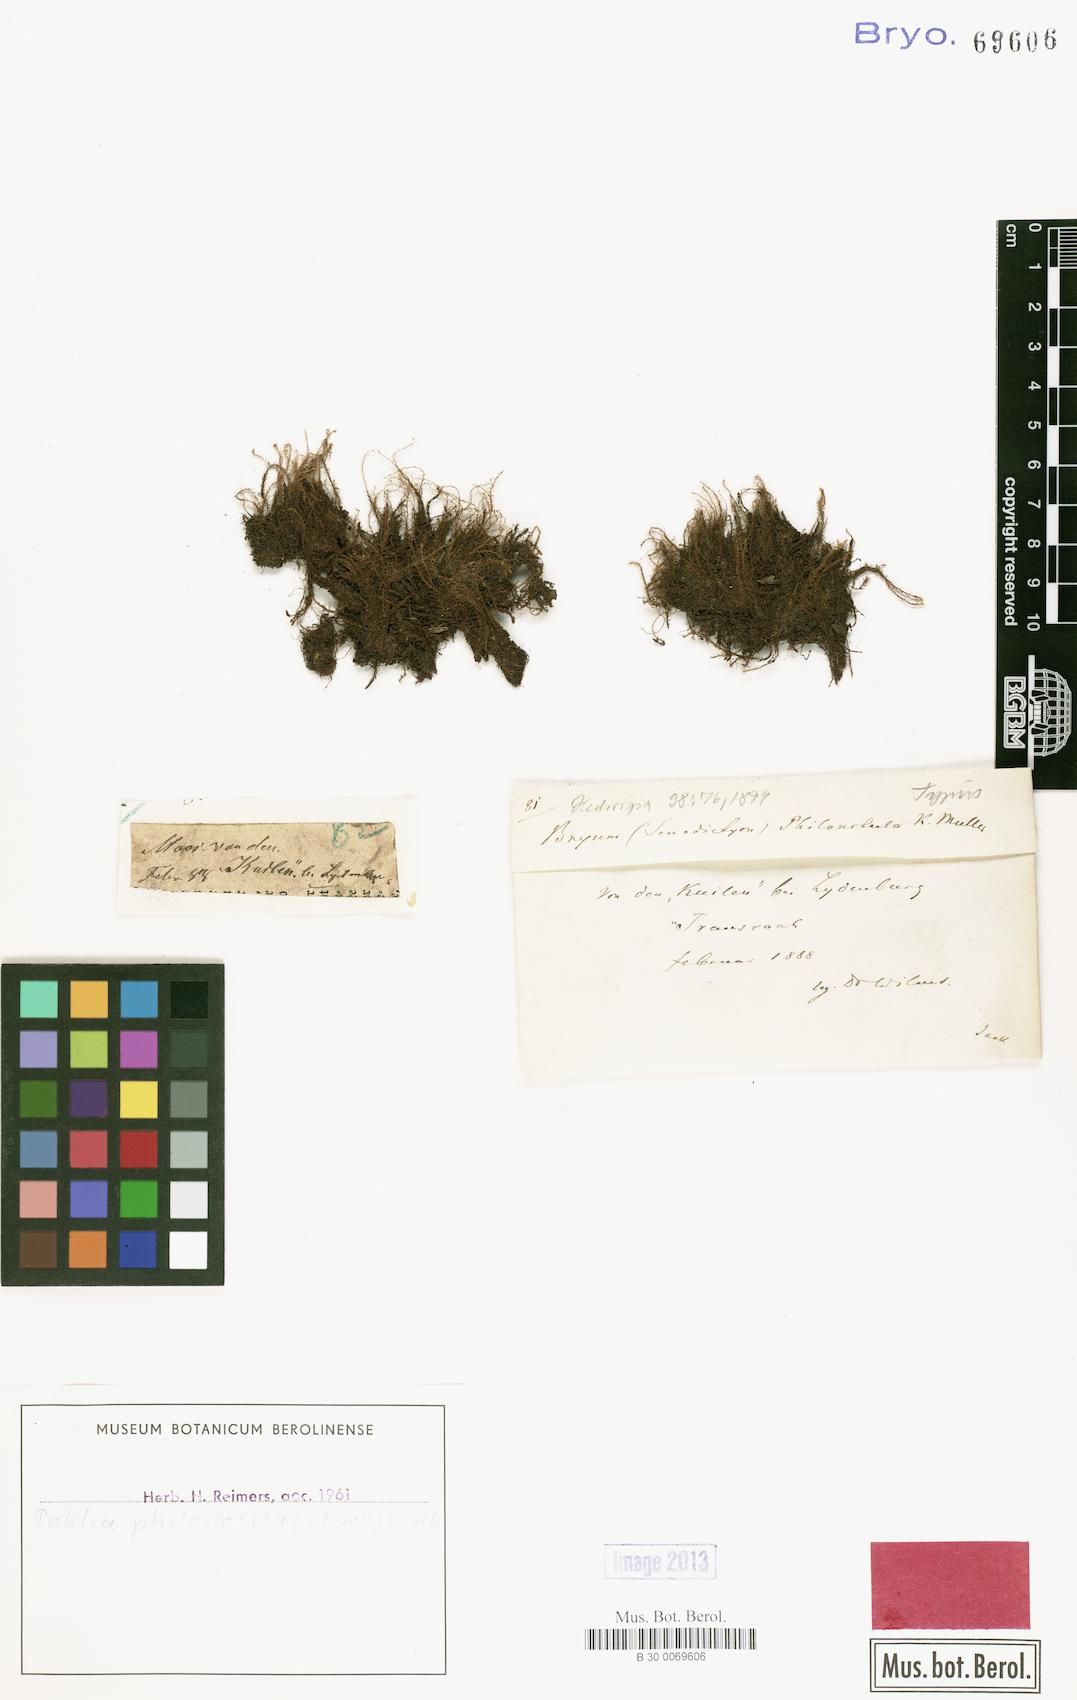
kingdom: Plantae
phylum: Bryophyta
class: Bryopsida
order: Bryales
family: Mniaceae
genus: Pohlia
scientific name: Pohlia philonotula
